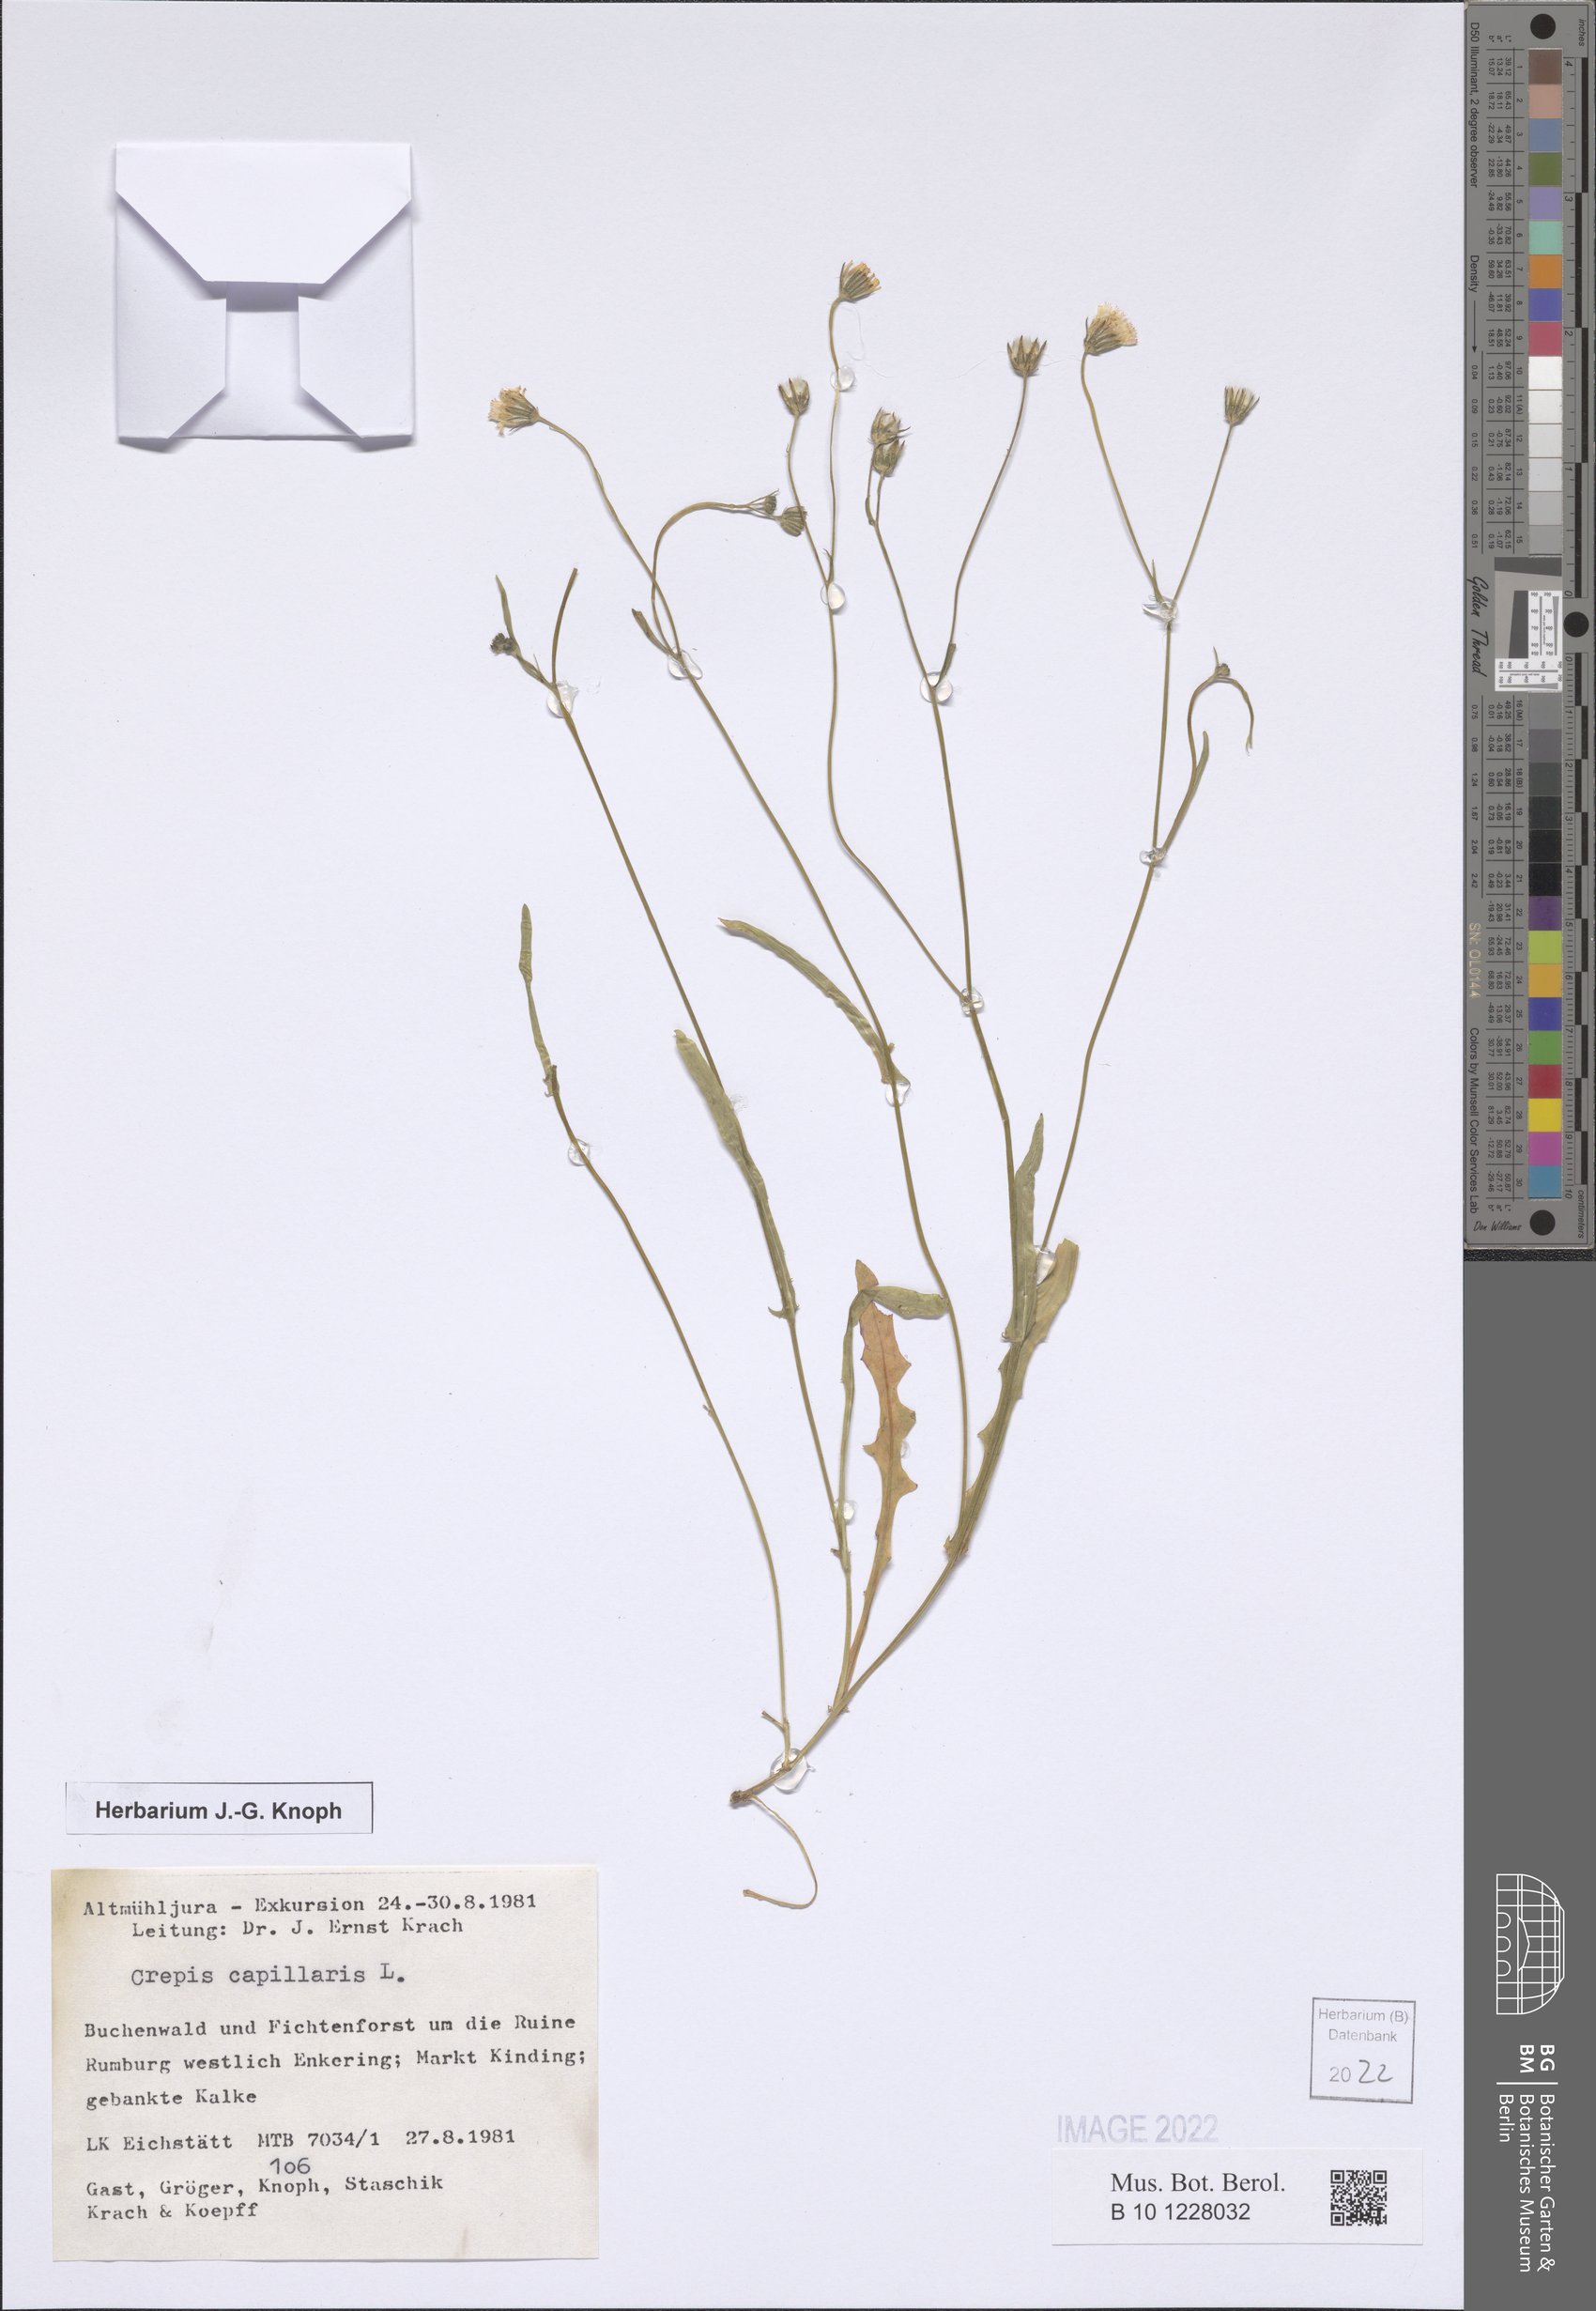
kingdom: Plantae
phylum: Tracheophyta
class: Magnoliopsida
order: Asterales
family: Asteraceae
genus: Crepis
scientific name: Crepis capillaris
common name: Smooth hawksbeard
